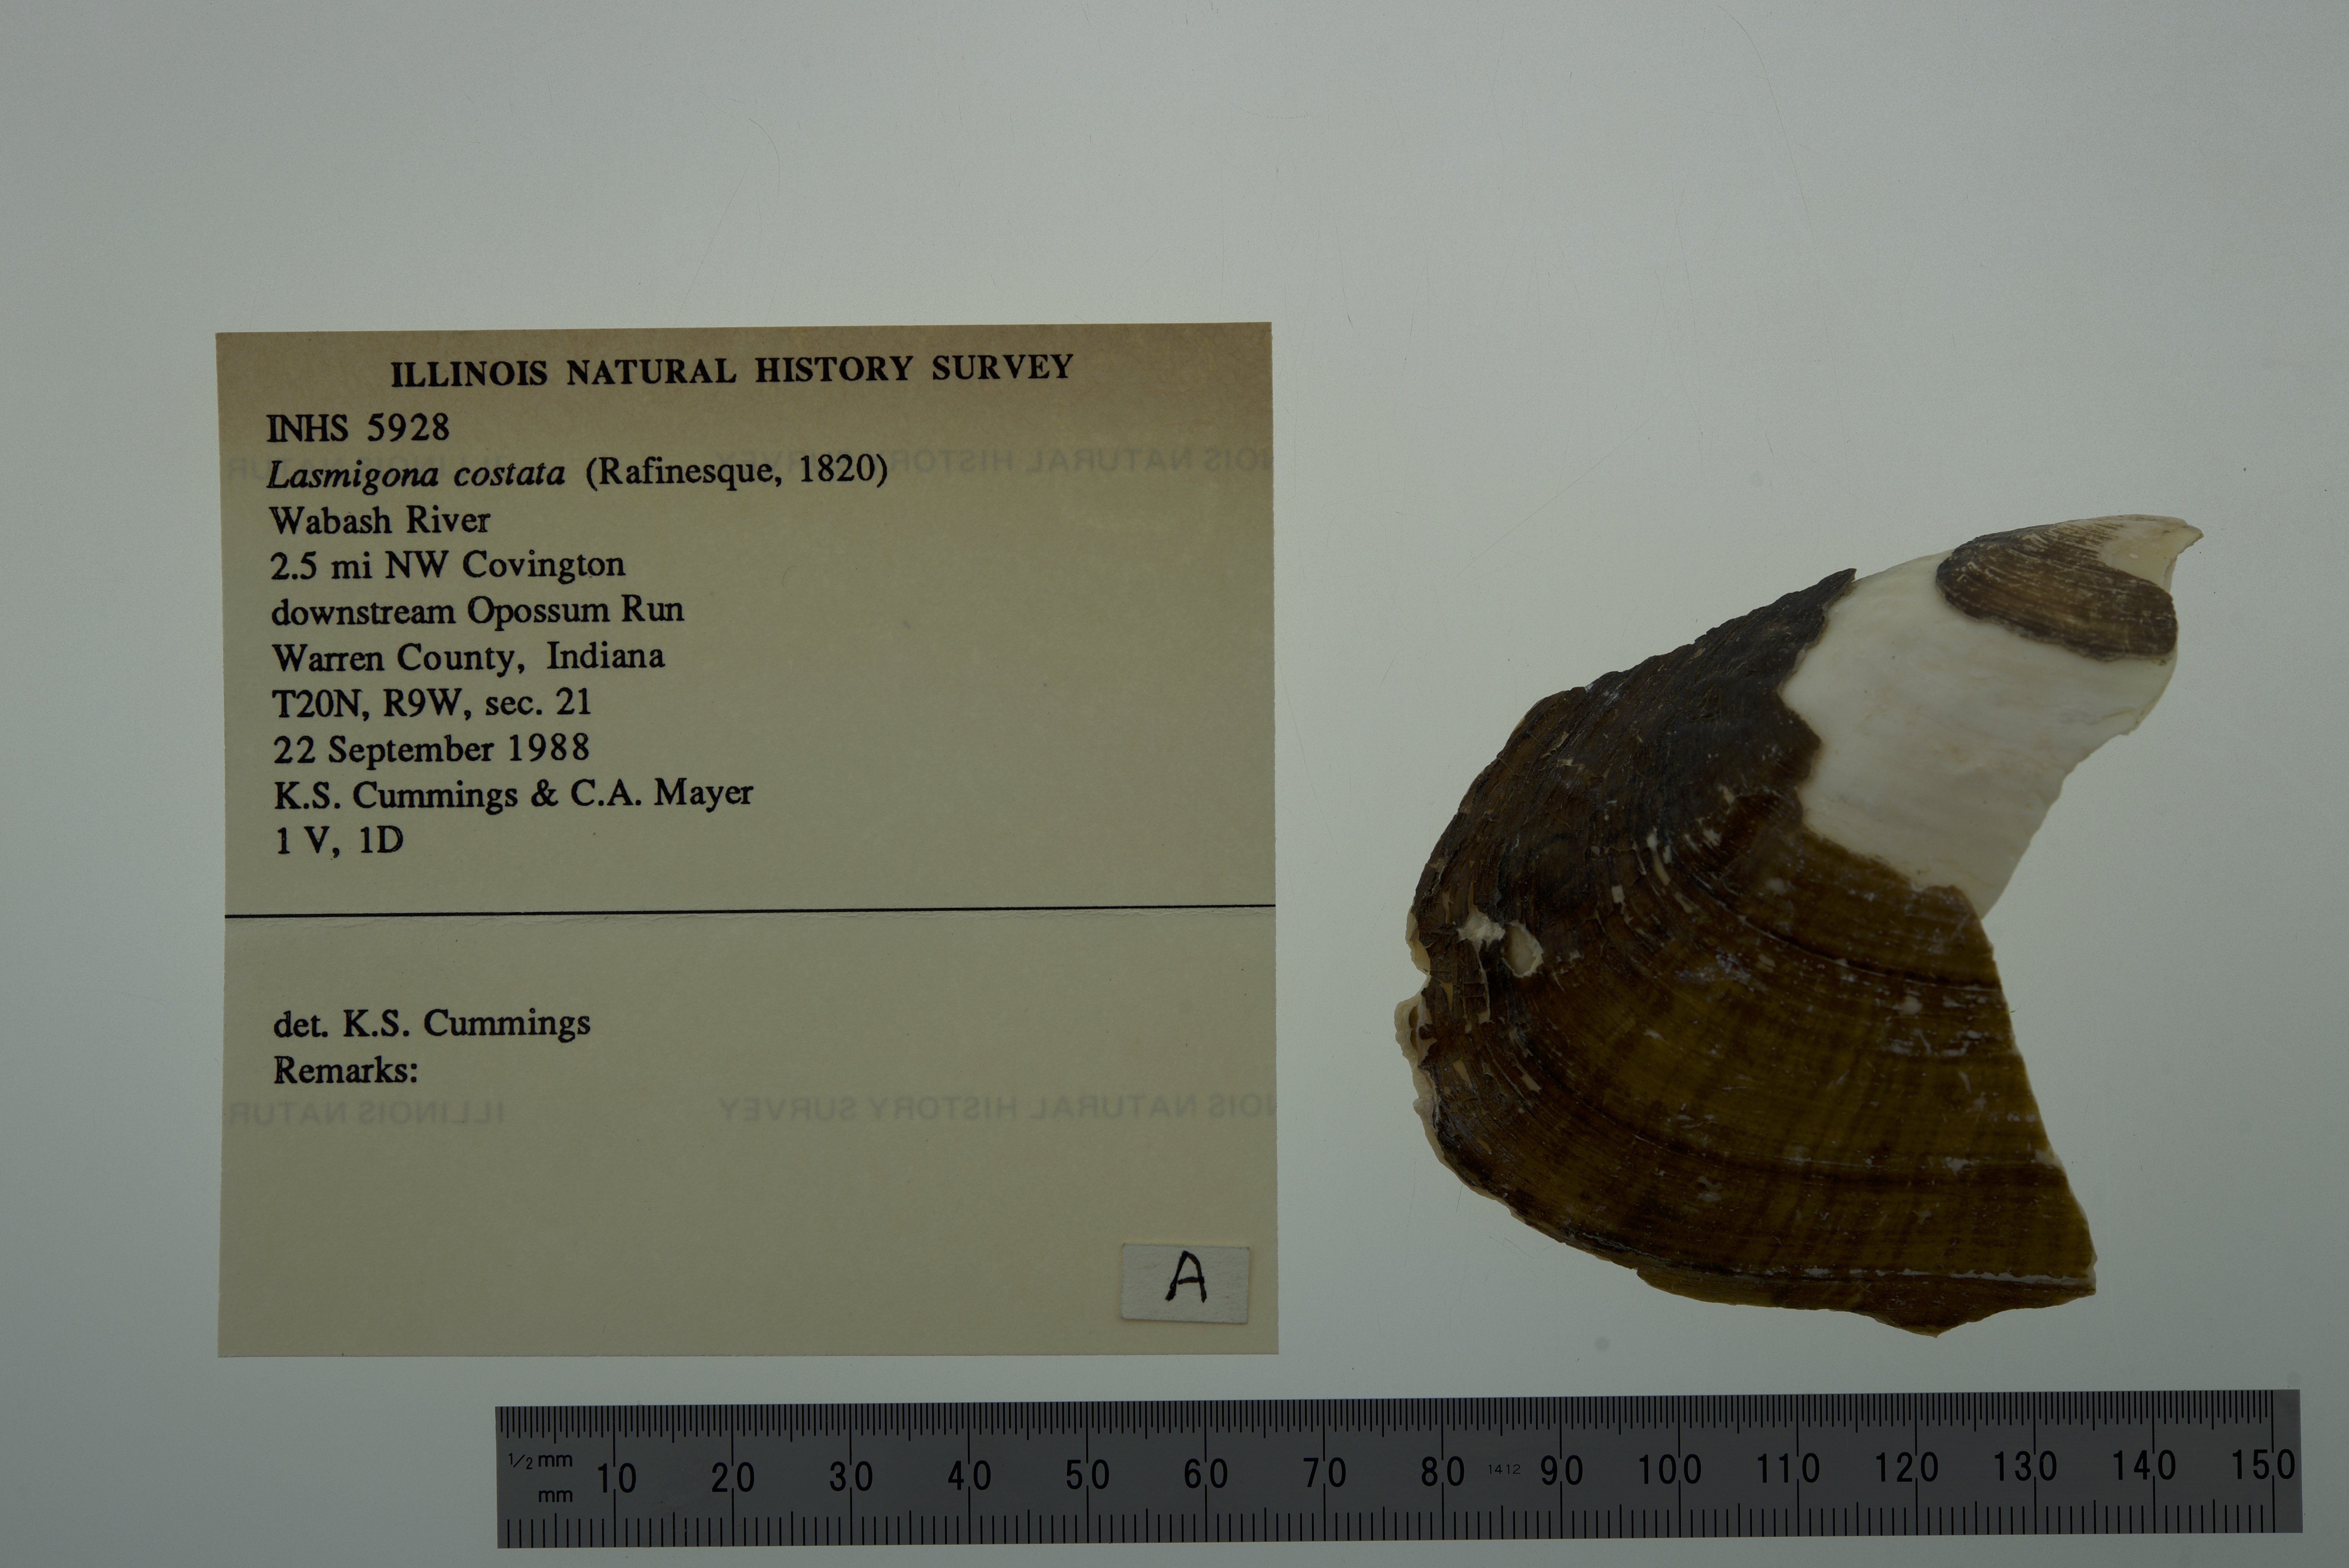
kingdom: Animalia
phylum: Mollusca
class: Bivalvia
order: Unionida
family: Unionidae
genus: Lasmigona
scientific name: Lasmigona costata
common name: Flutedshell
